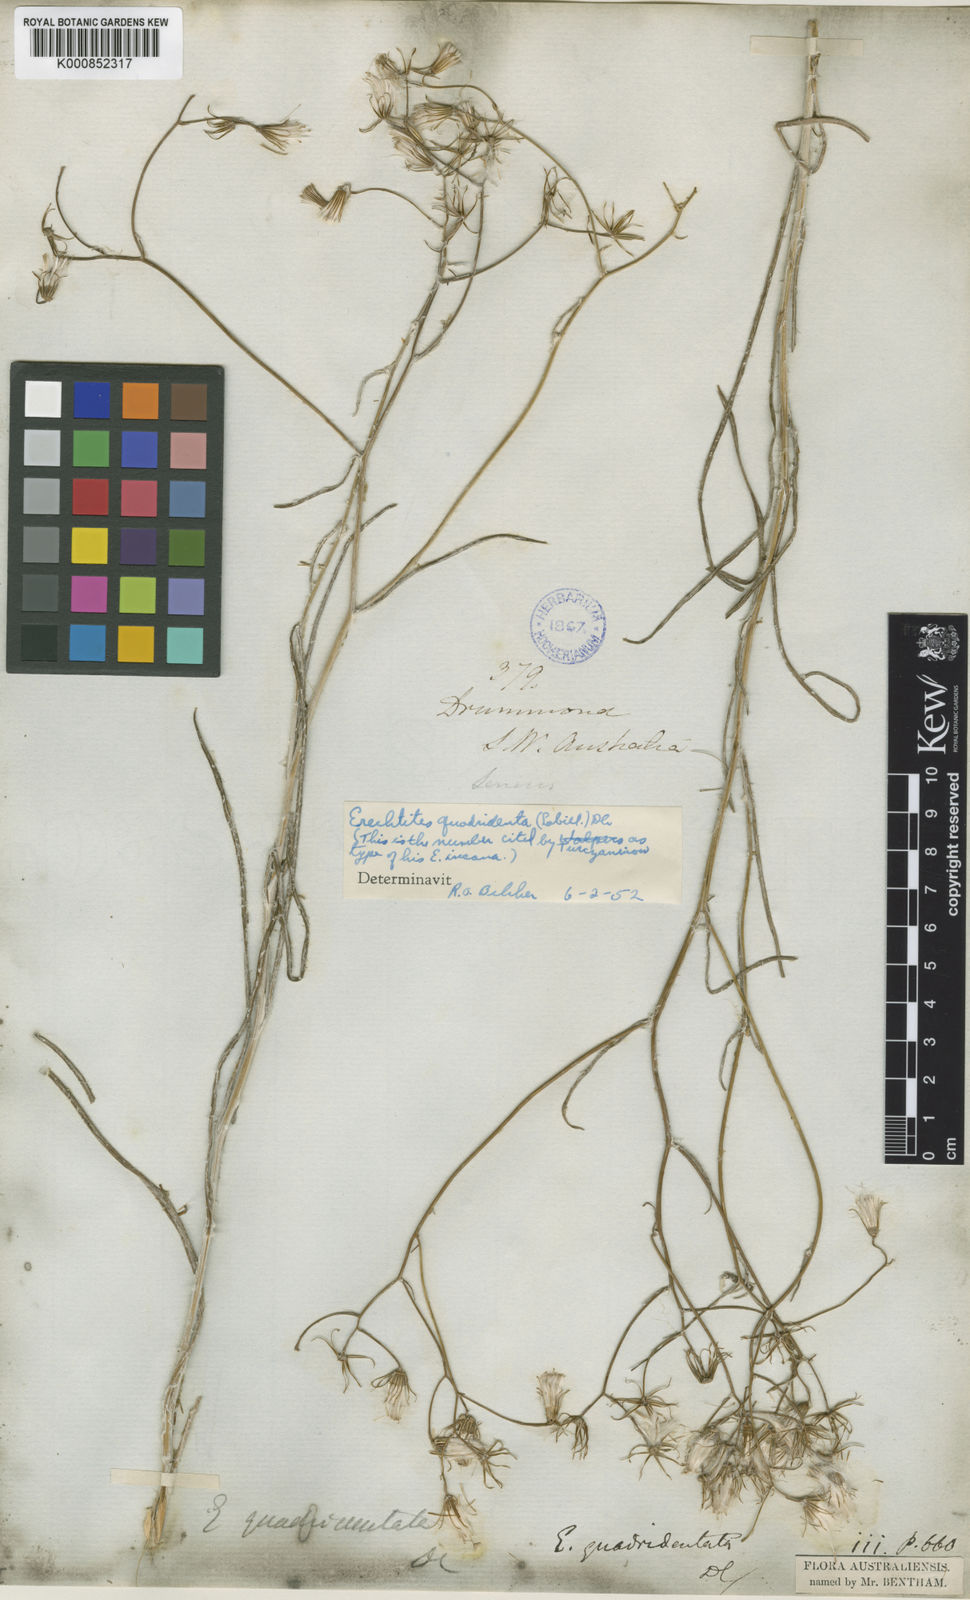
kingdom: Plantae
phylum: Tracheophyta
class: Magnoliopsida
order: Asterales
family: Asteraceae
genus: Senecio
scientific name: Senecio quadridentatus
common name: Cotton fireweed
